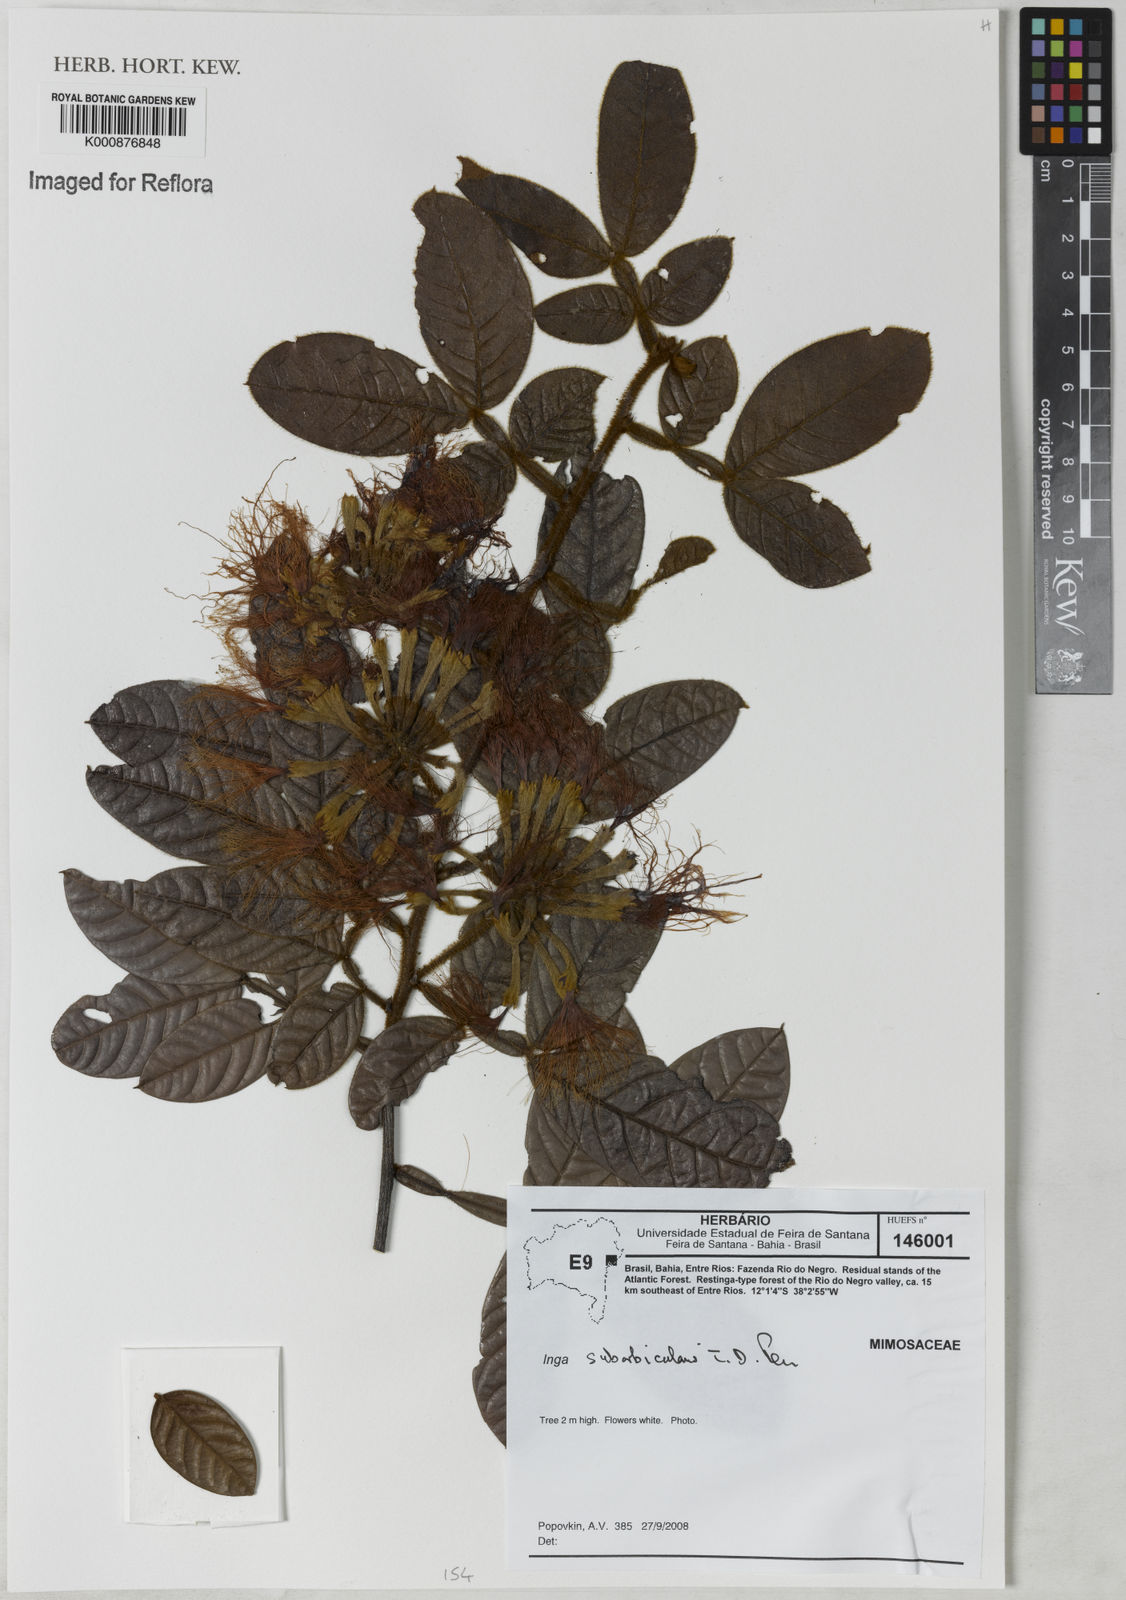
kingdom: Plantae
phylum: Tracheophyta
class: Magnoliopsida
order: Fabales
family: Fabaceae
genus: Inga
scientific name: Inga suborbicularis
